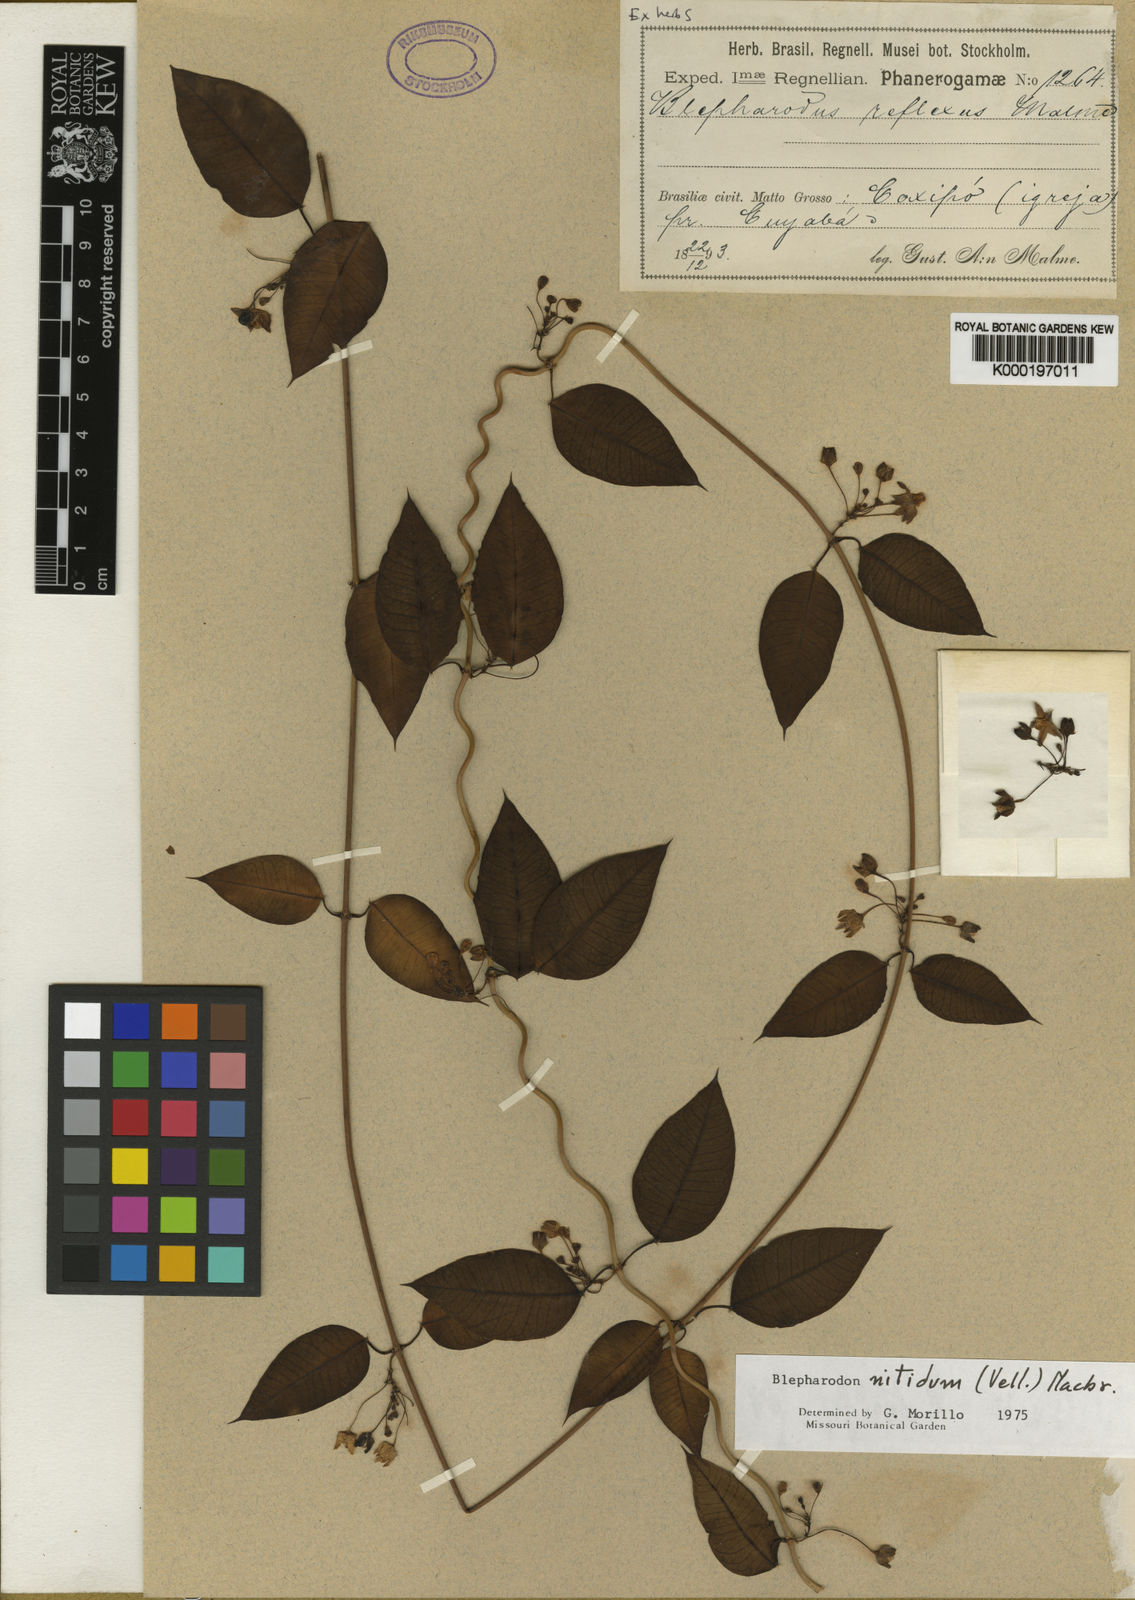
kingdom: Plantae
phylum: Tracheophyta
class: Magnoliopsida
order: Gentianales
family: Apocynaceae
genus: Blepharodon
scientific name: Blepharodon pictum
